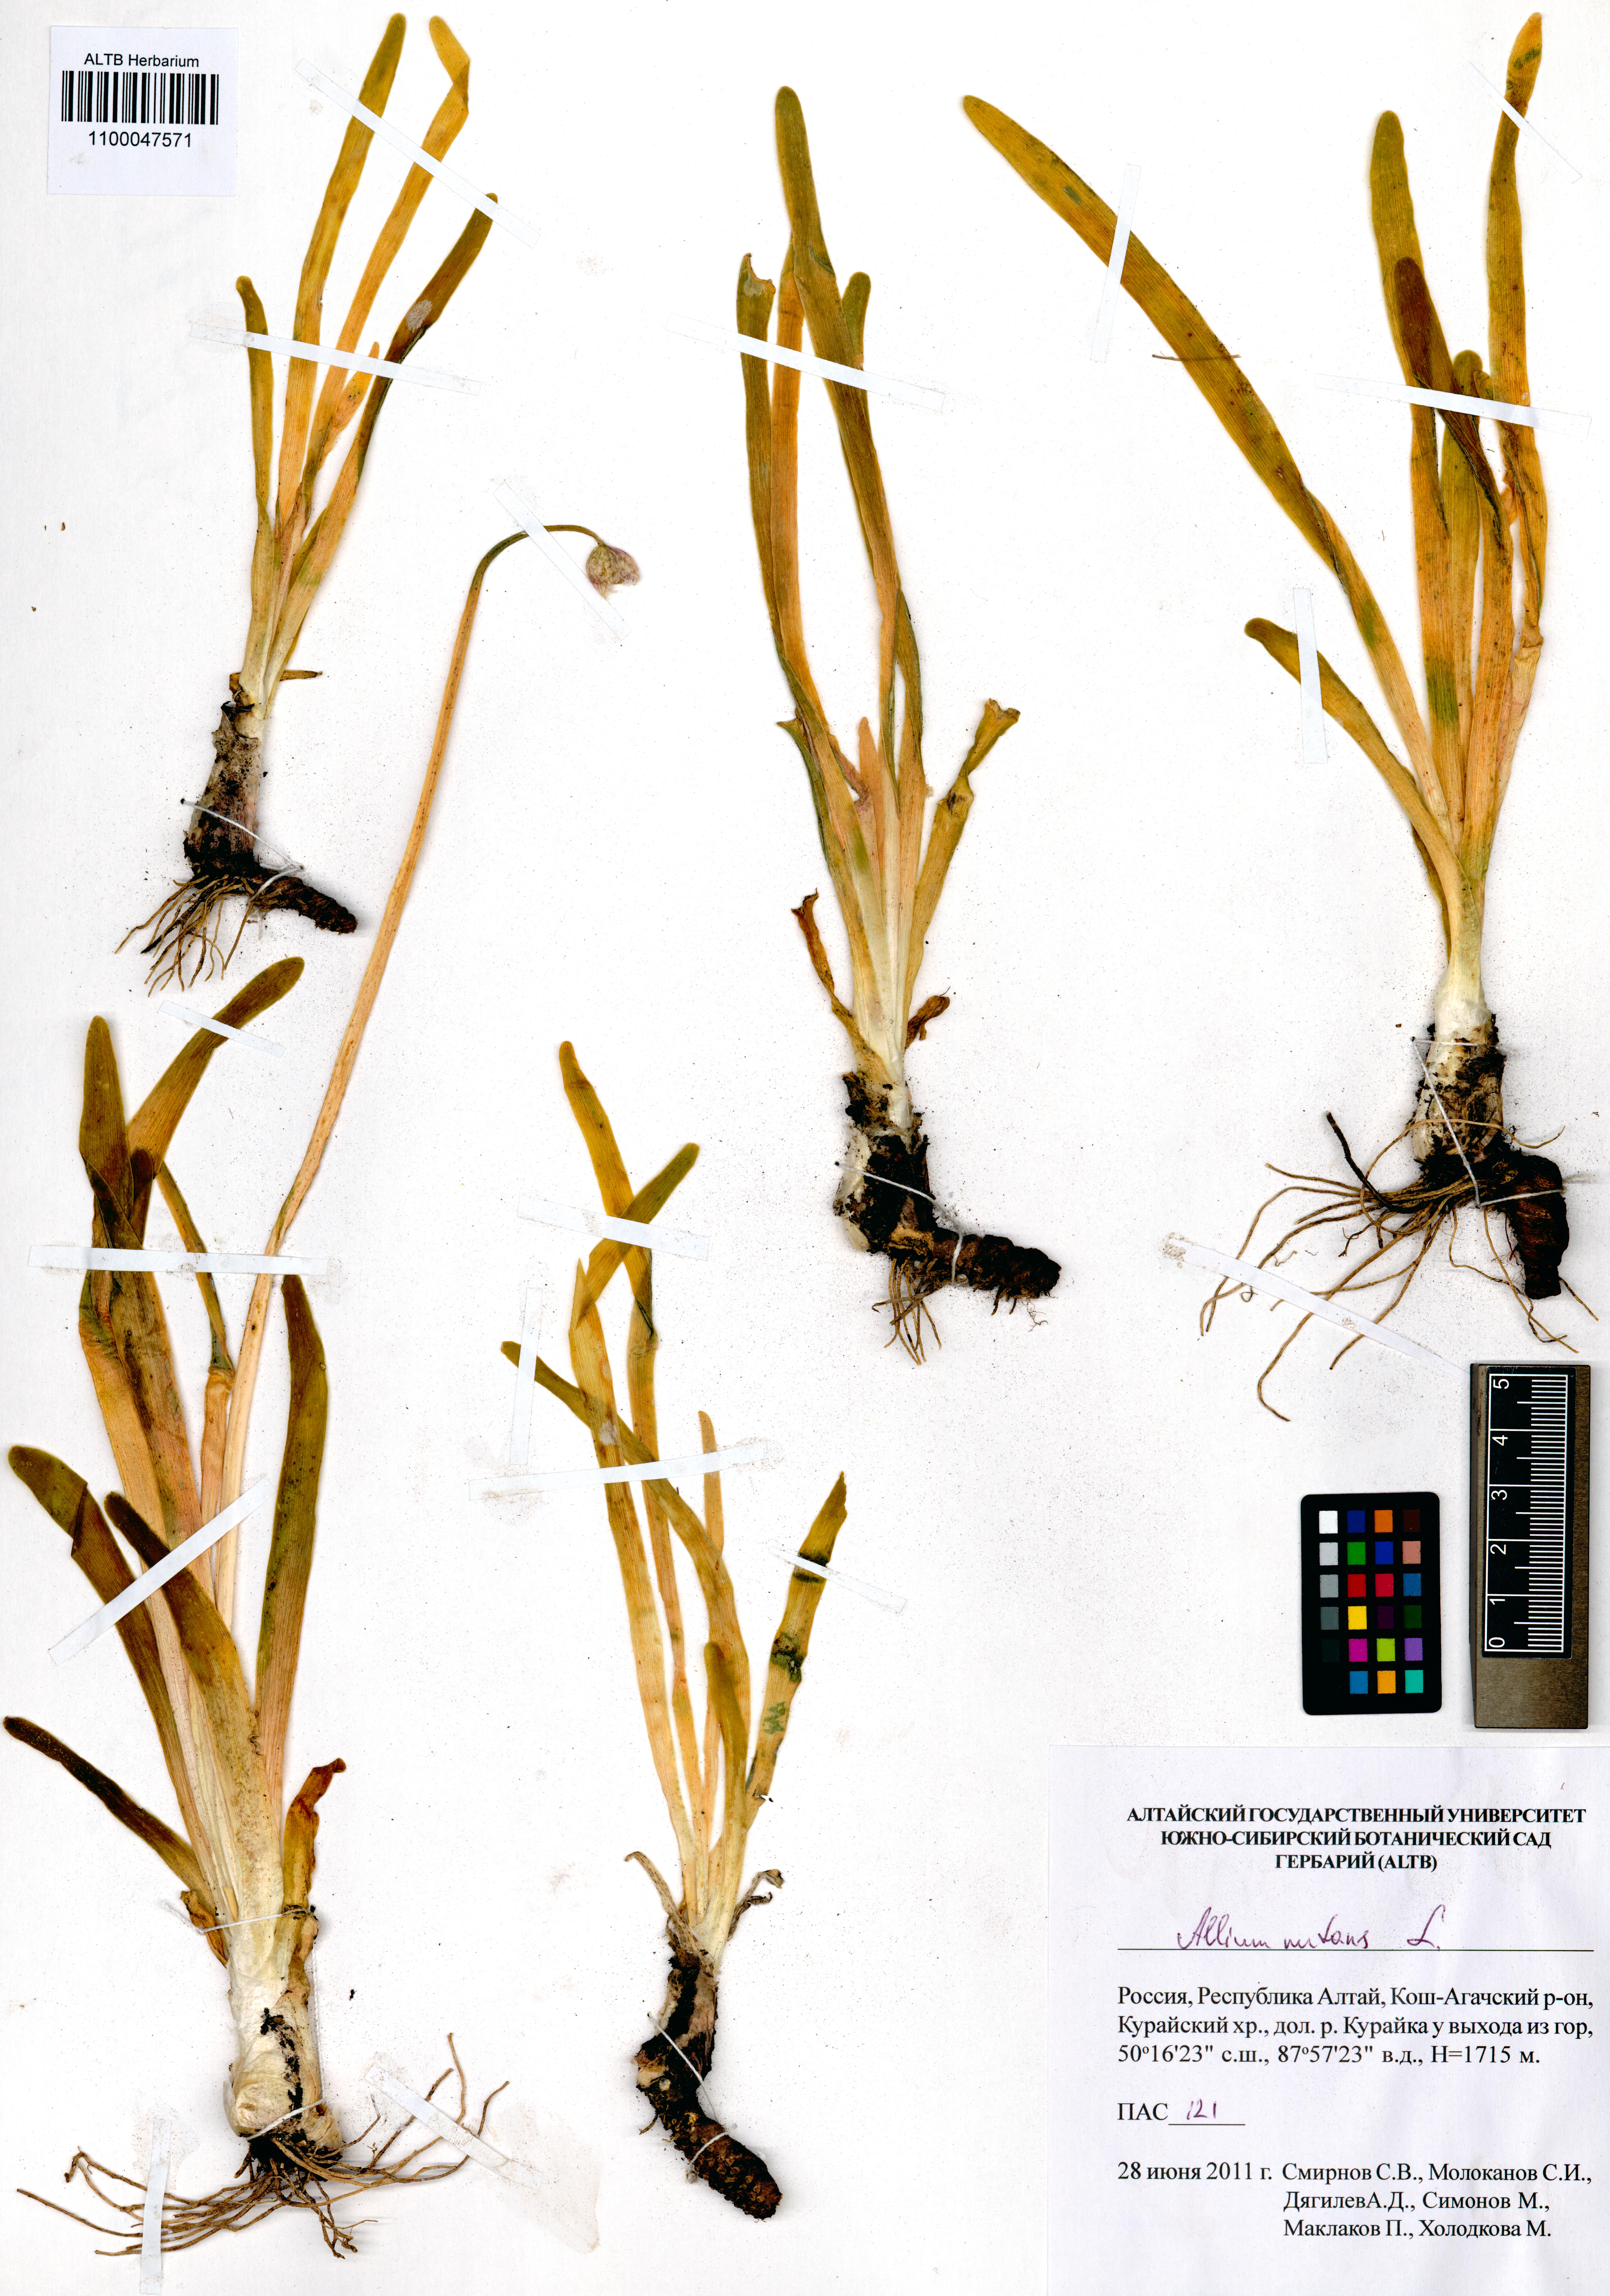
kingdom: Plantae
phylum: Tracheophyta
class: Liliopsida
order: Asparagales
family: Amaryllidaceae
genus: Allium
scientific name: Allium nutans
